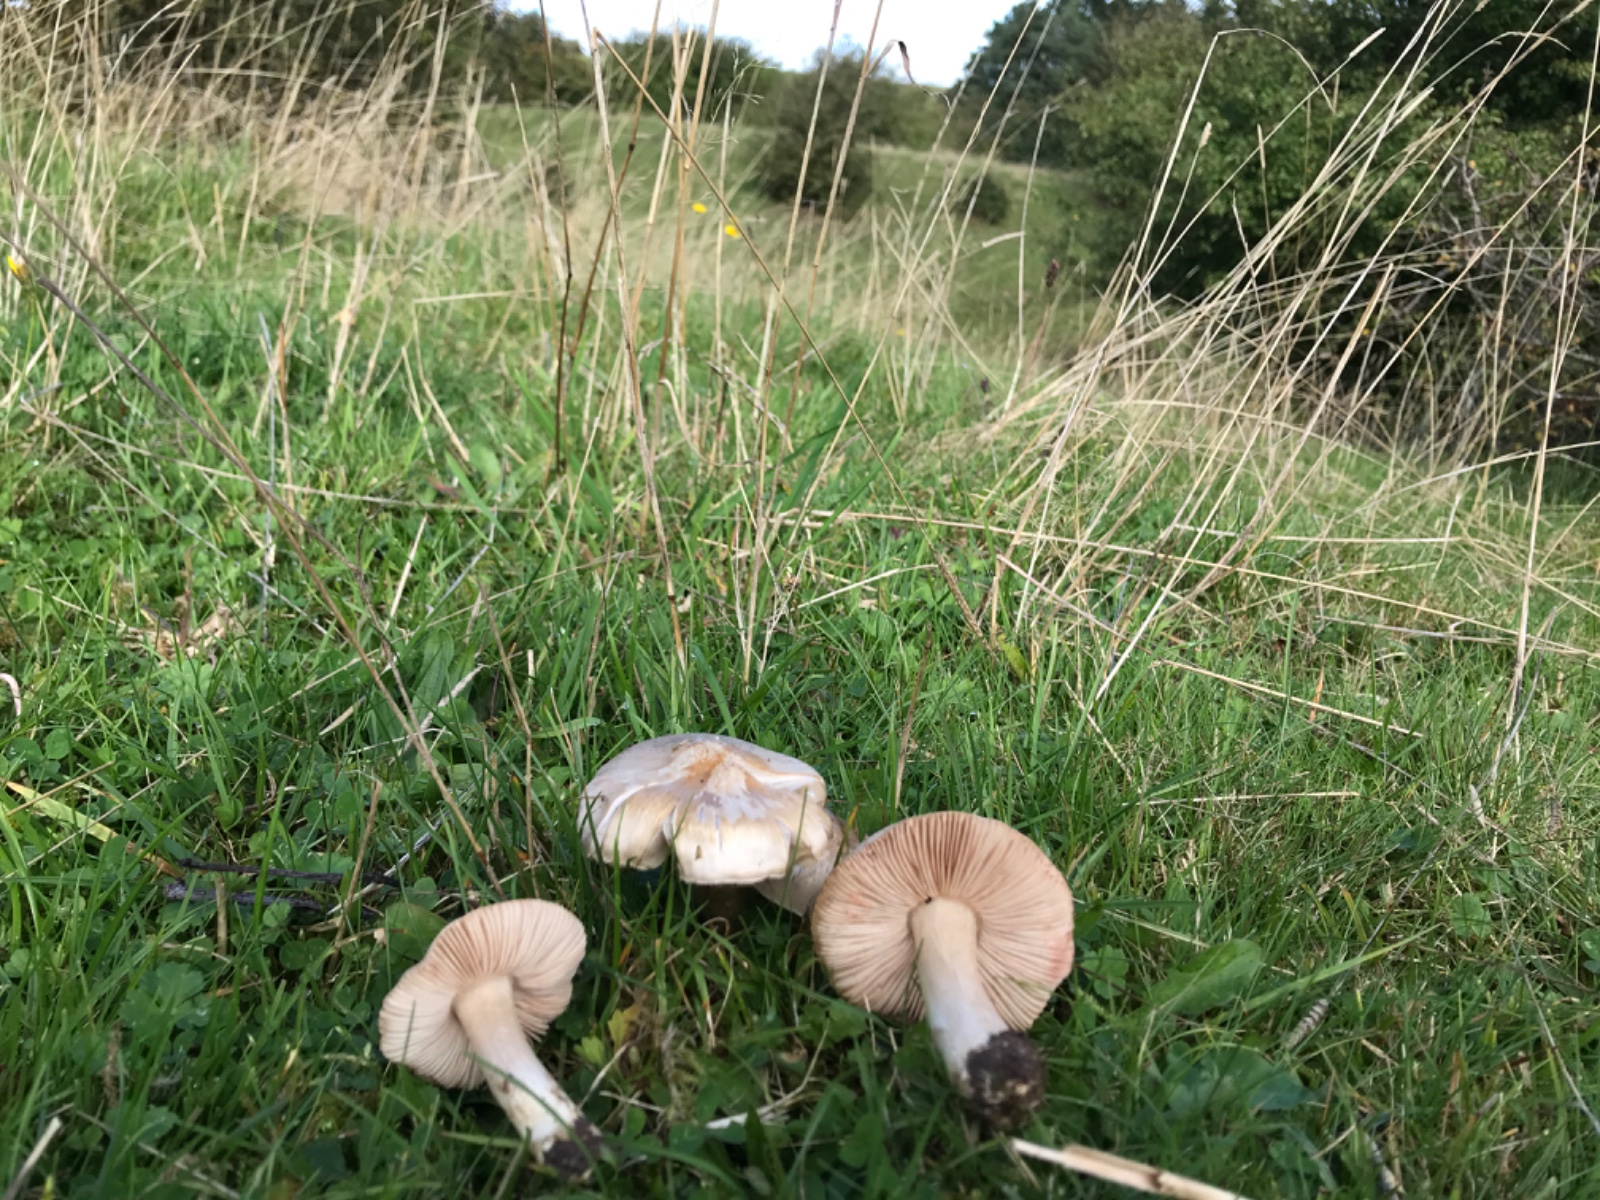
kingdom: Fungi
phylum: Basidiomycota
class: Agaricomycetes
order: Agaricales
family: Entolomataceae
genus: Entoloma
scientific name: Entoloma prunuloides
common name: mel-rødblad
